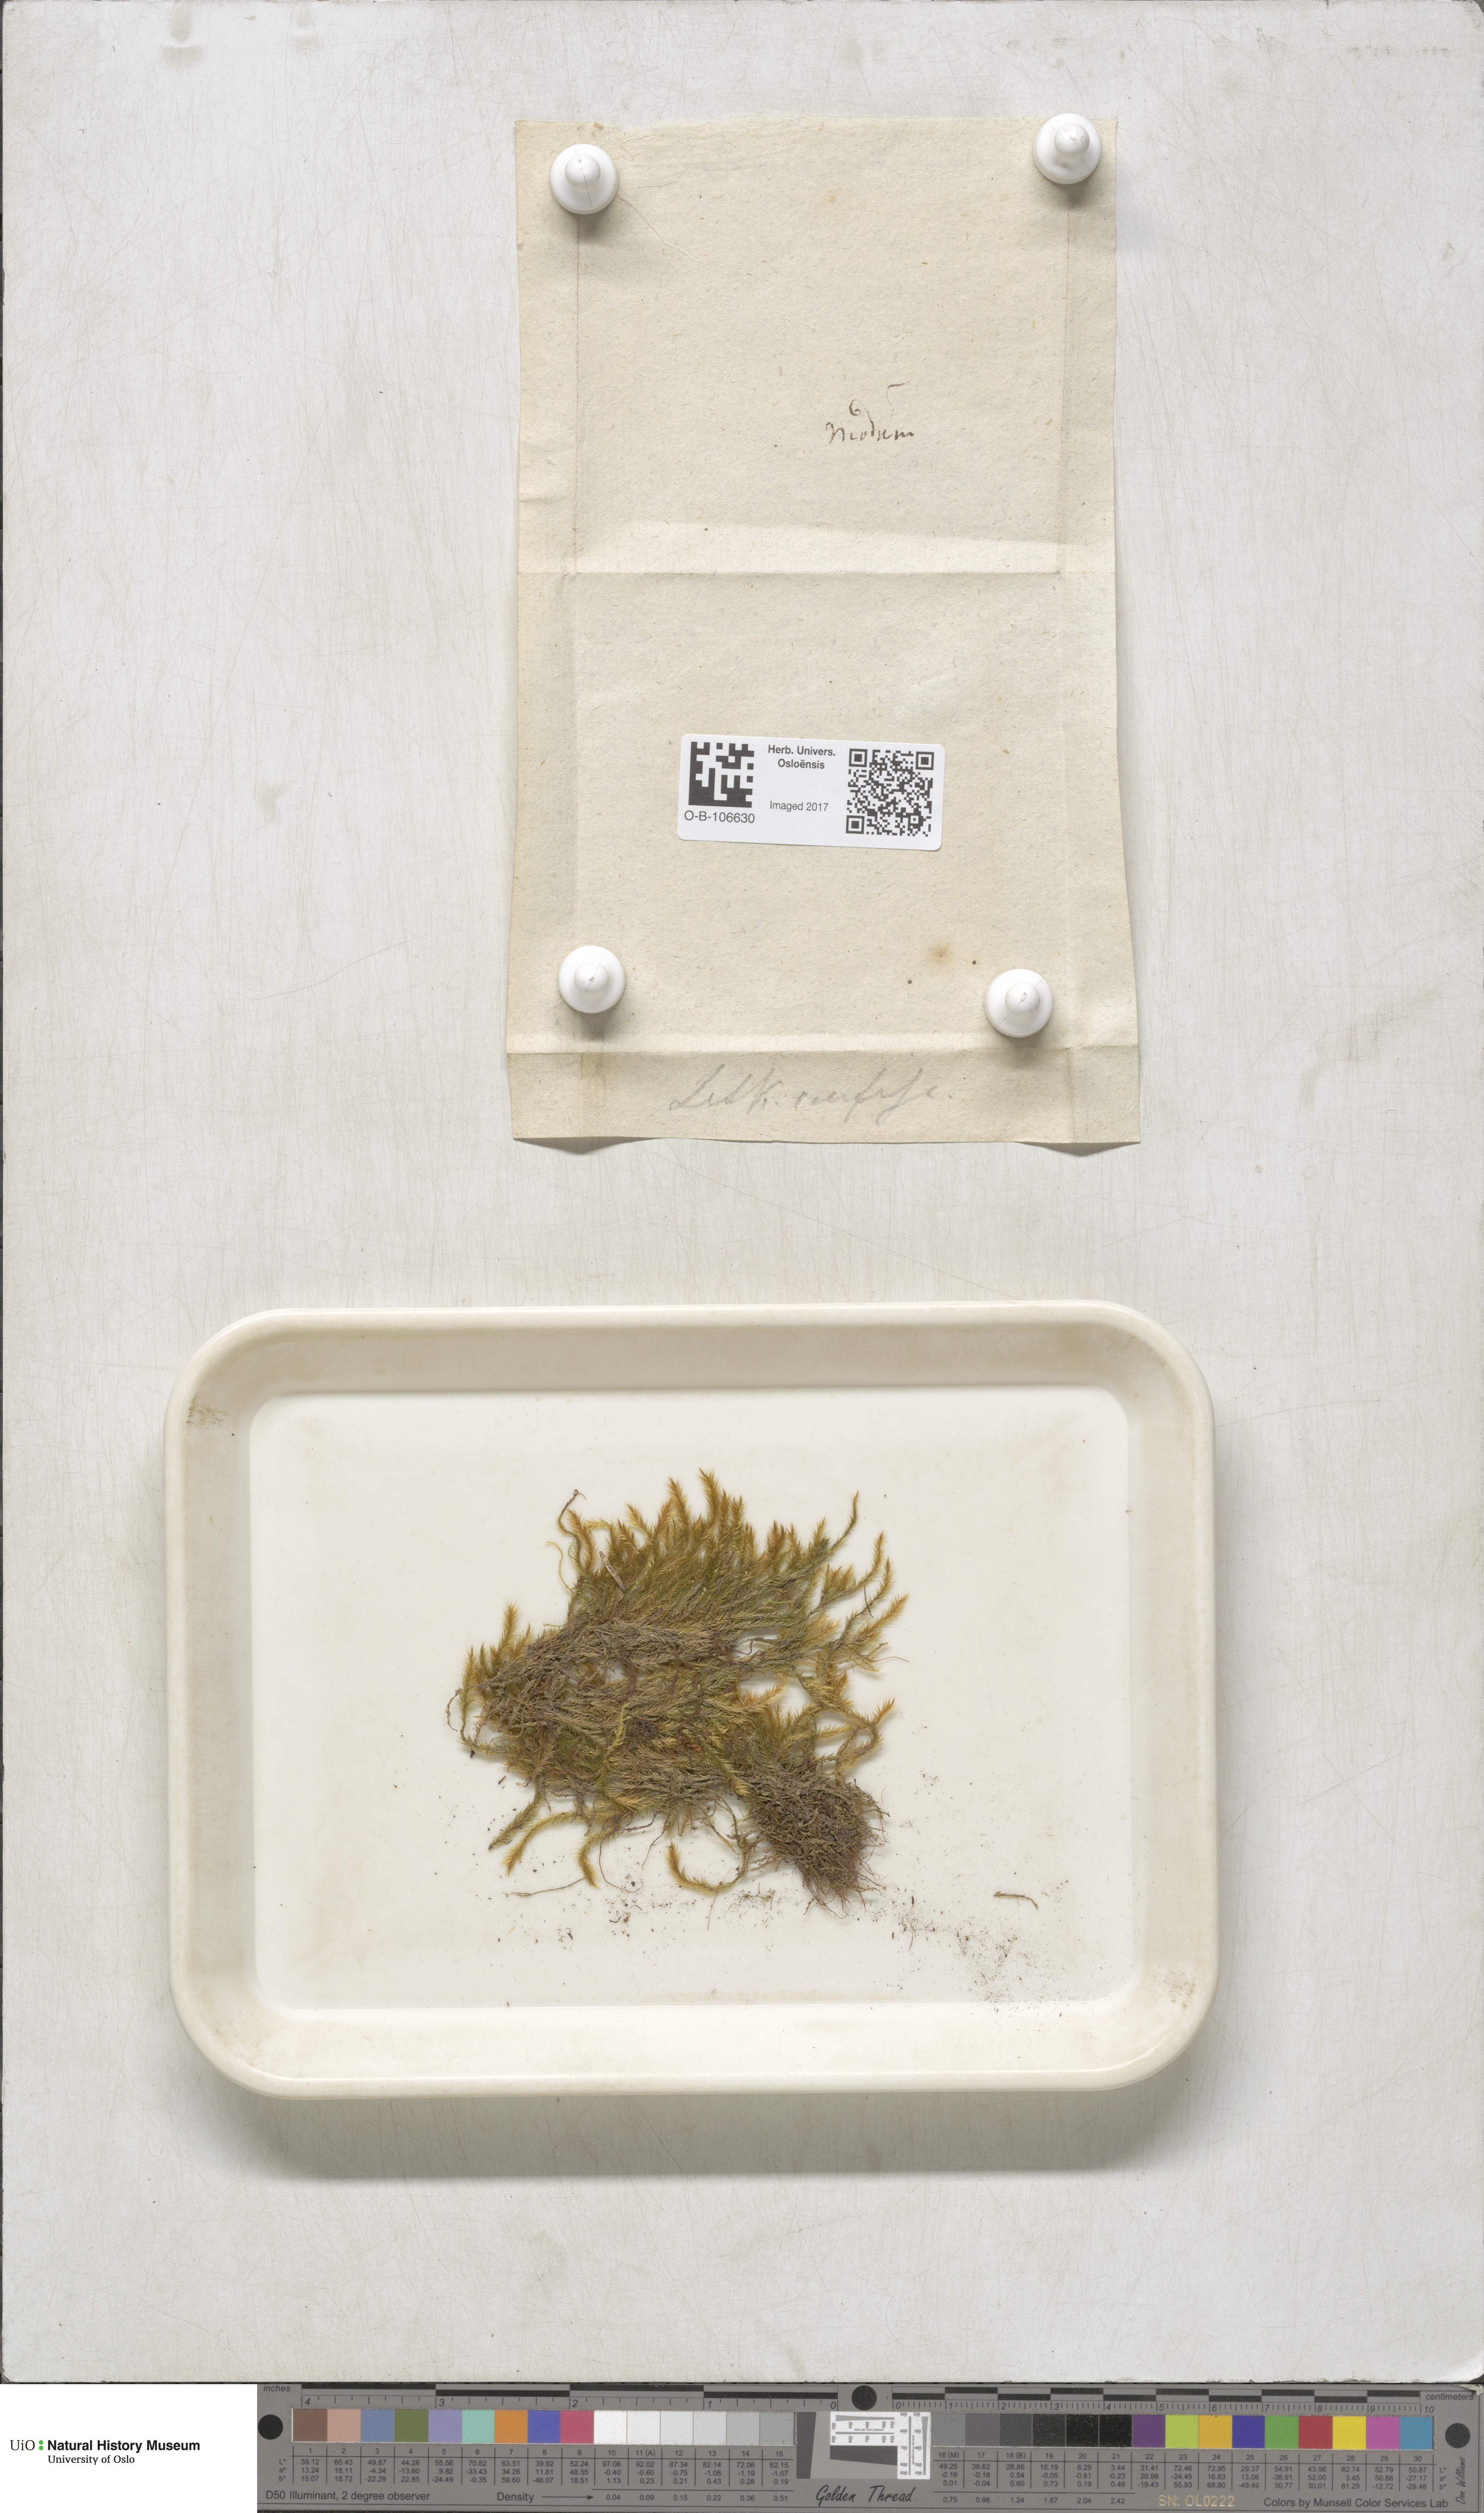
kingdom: Plantae
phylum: Bryophyta
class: Bryopsida
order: Hypnales
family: Plagiotheciaceae
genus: Orthothecium
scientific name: Orthothecium rufescens
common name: Red leskea
